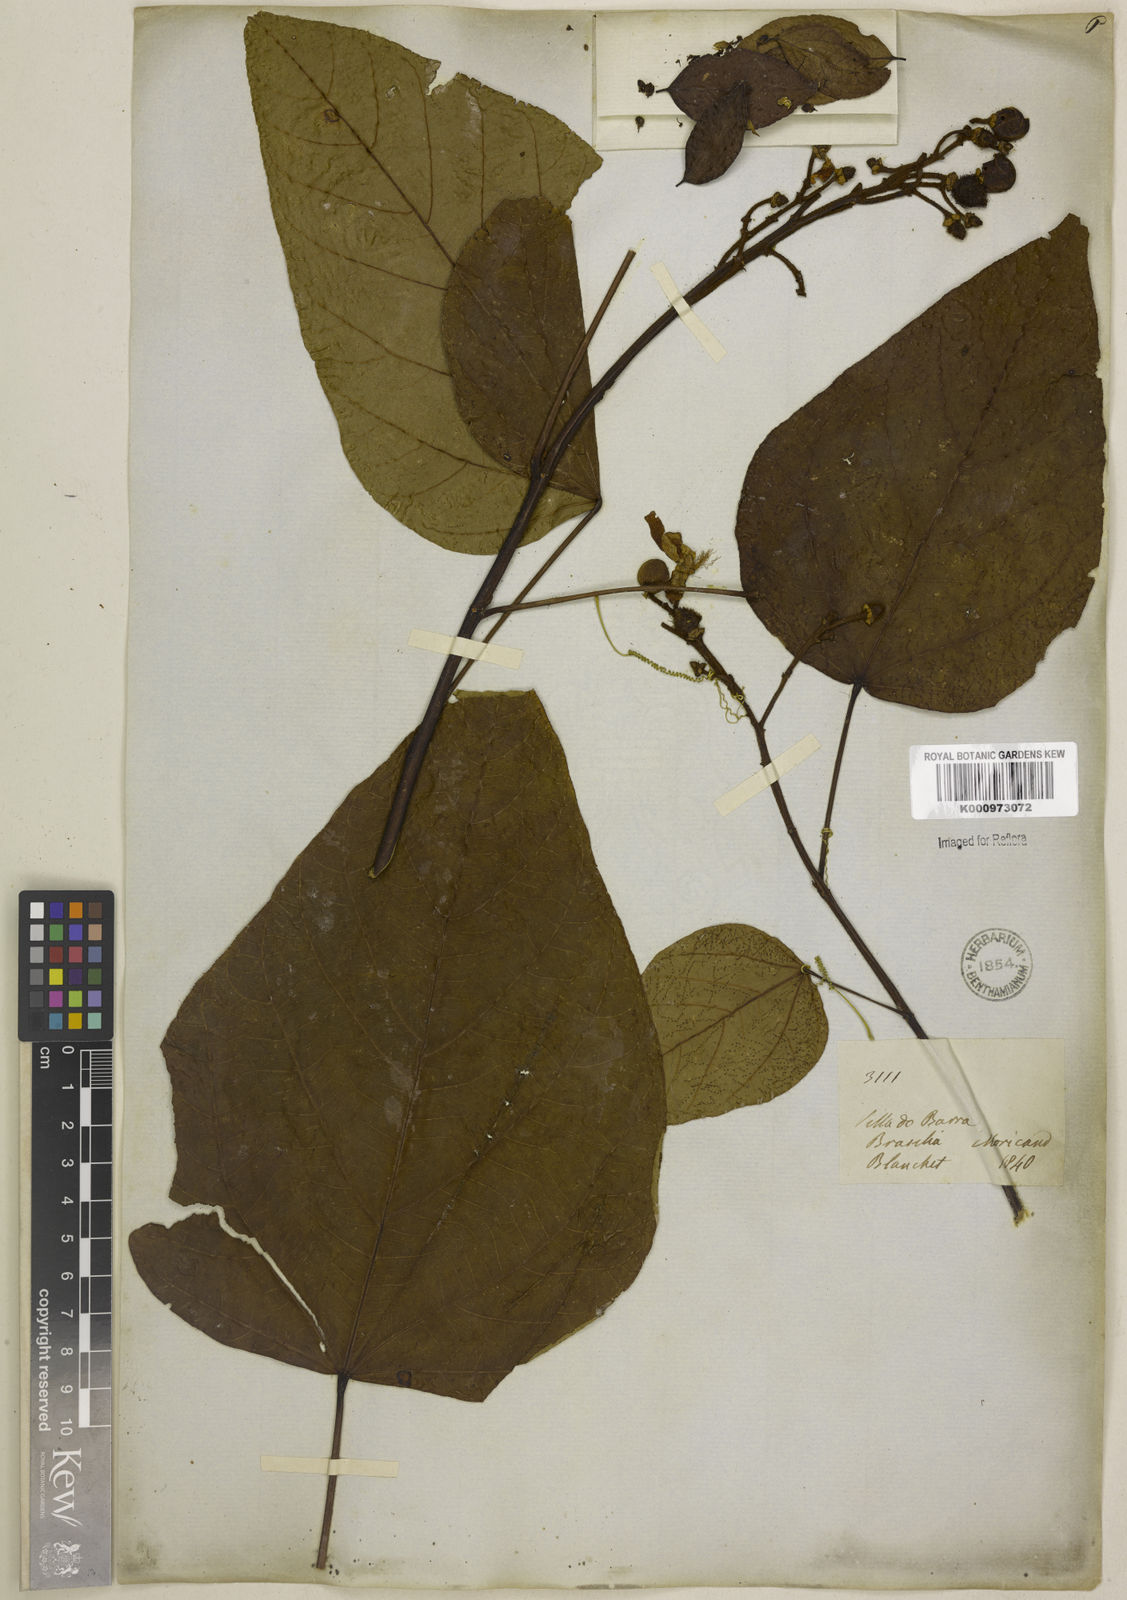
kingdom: Plantae
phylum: Tracheophyta
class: Magnoliopsida
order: Malvales
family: Bixaceae
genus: Bixa
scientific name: Bixa orellana
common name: Lipsticktree
